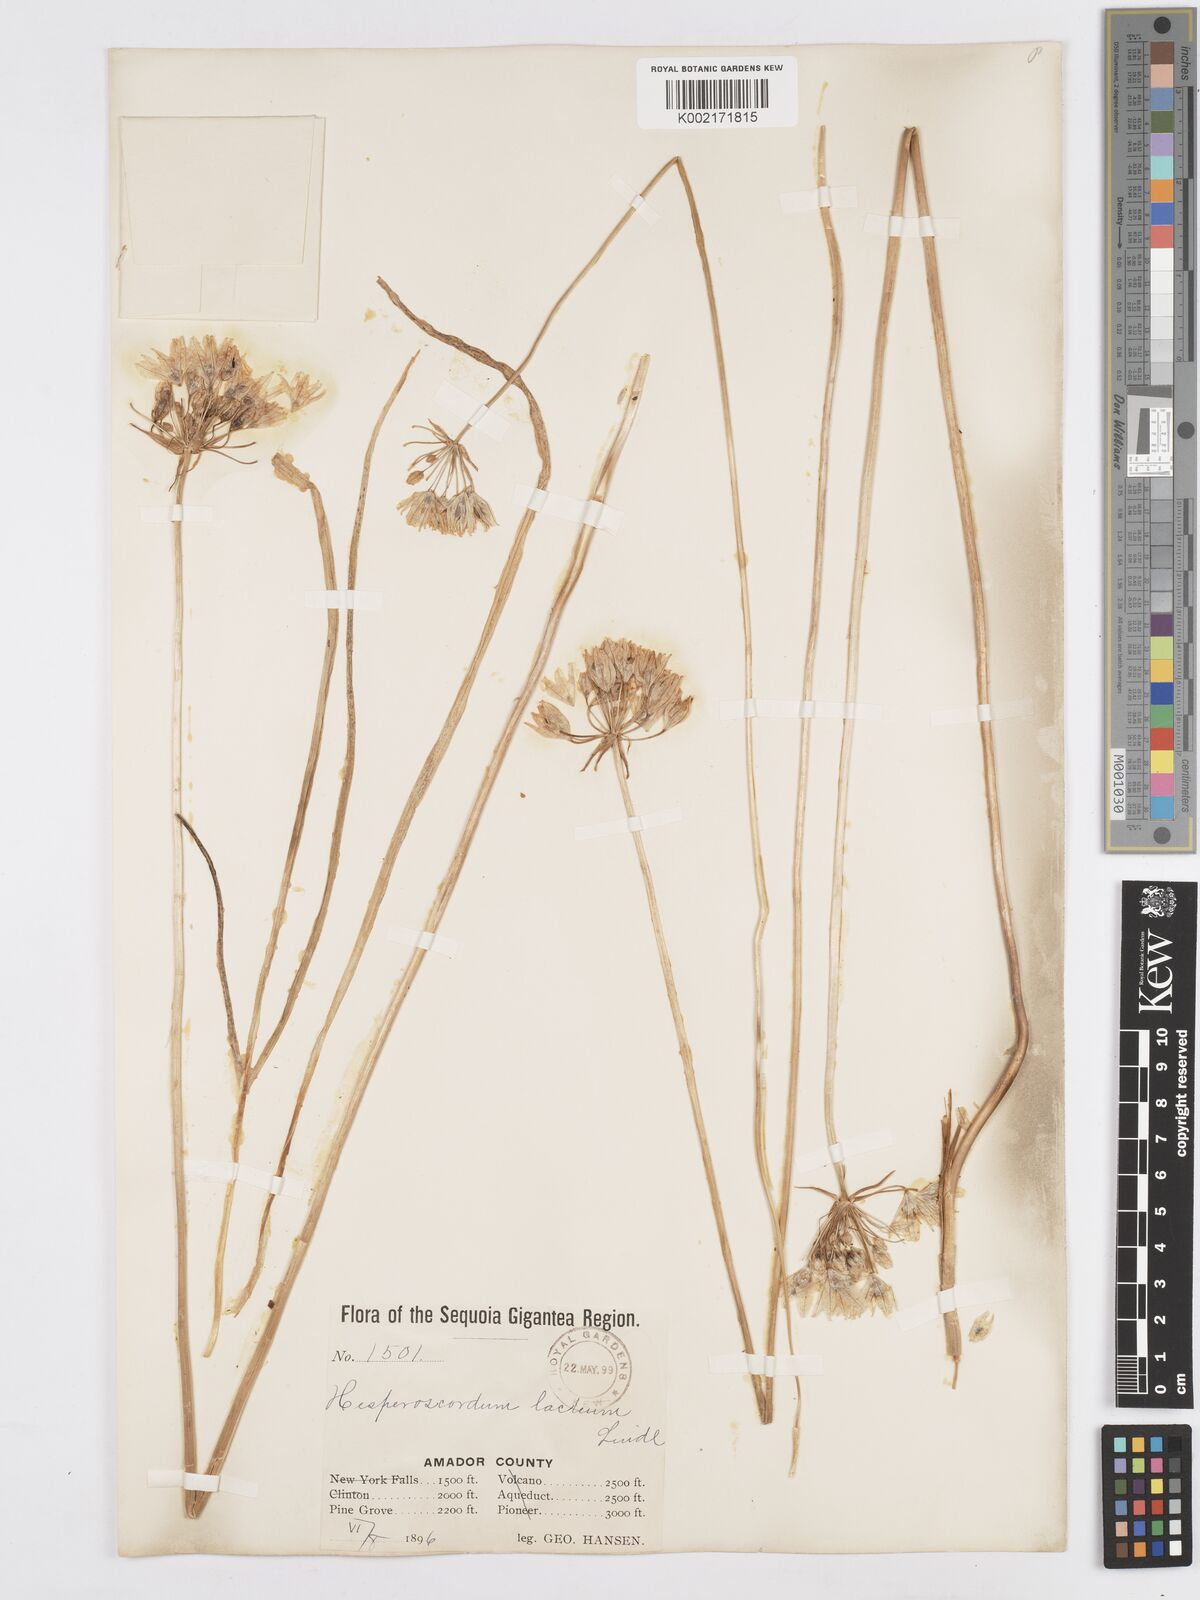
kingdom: Plantae
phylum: Tracheophyta
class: Liliopsida
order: Asparagales
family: Asparagaceae
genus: Triteleia
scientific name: Triteleia hyacinthina
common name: White brodiaea
